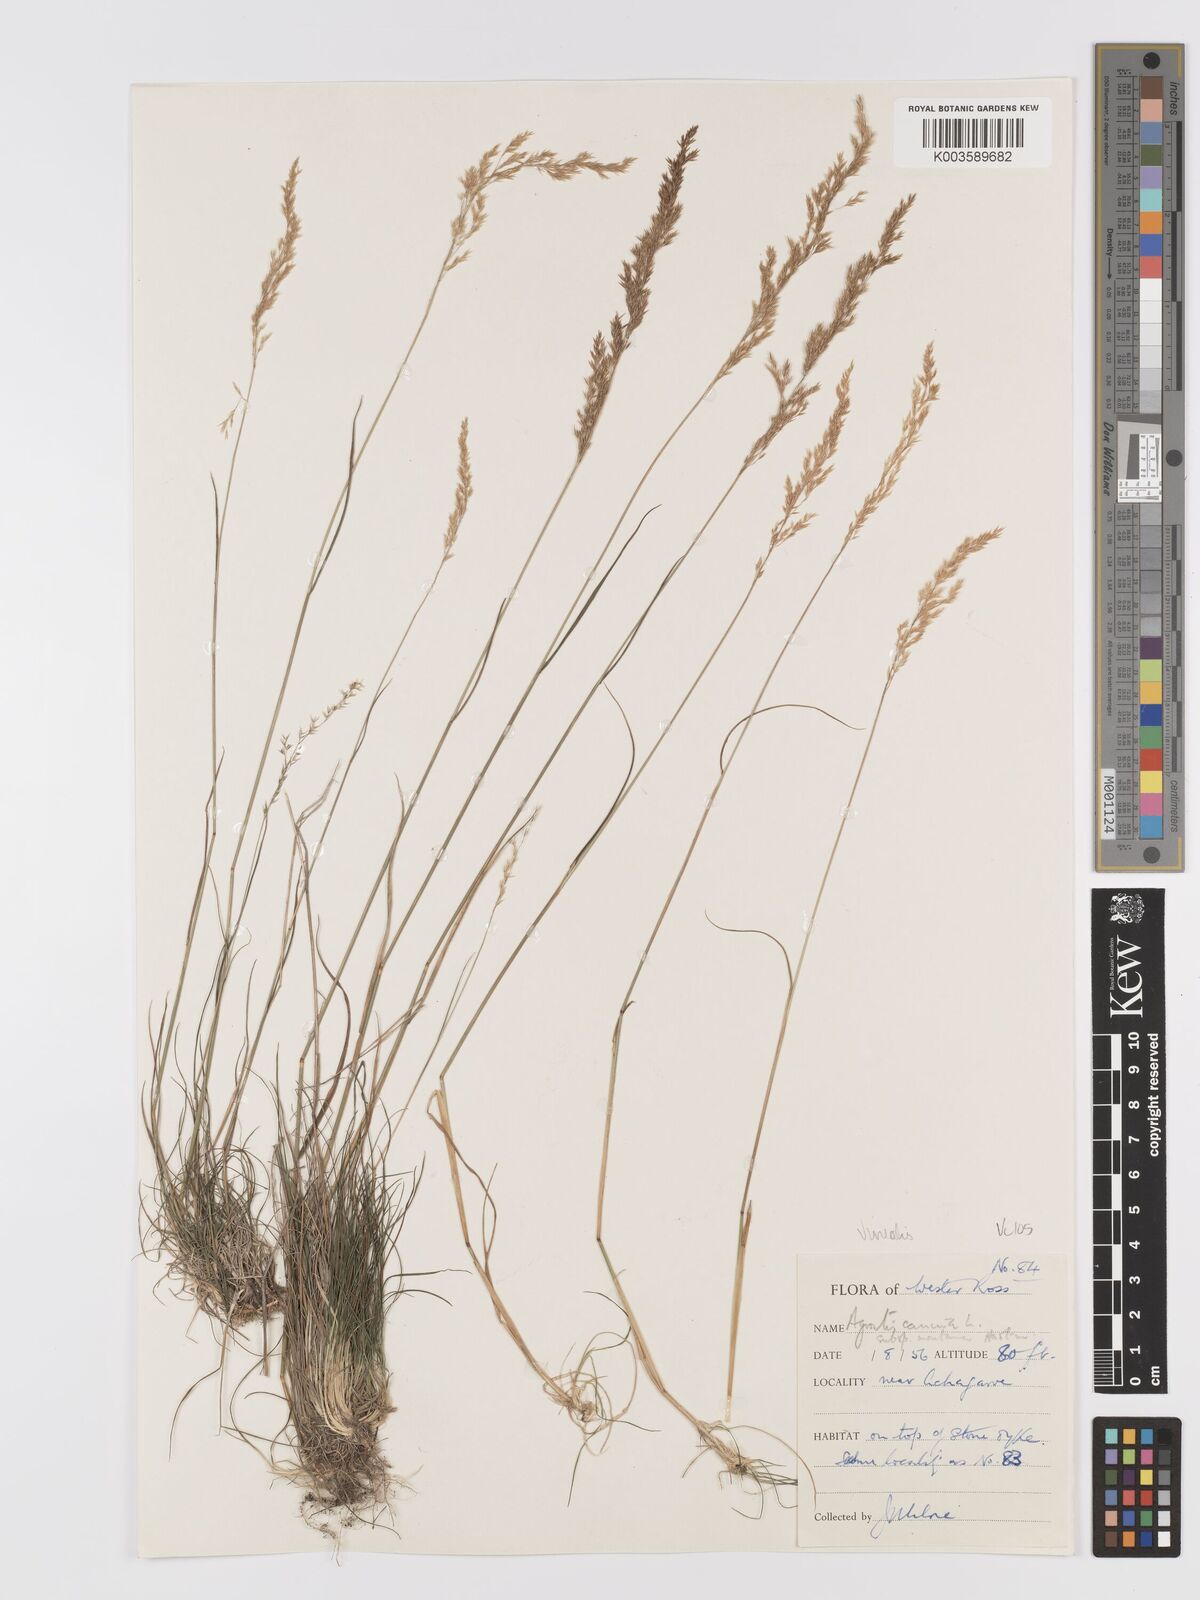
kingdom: Plantae
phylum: Tracheophyta
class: Liliopsida
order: Poales
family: Poaceae
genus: Agrostis
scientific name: Agrostis
